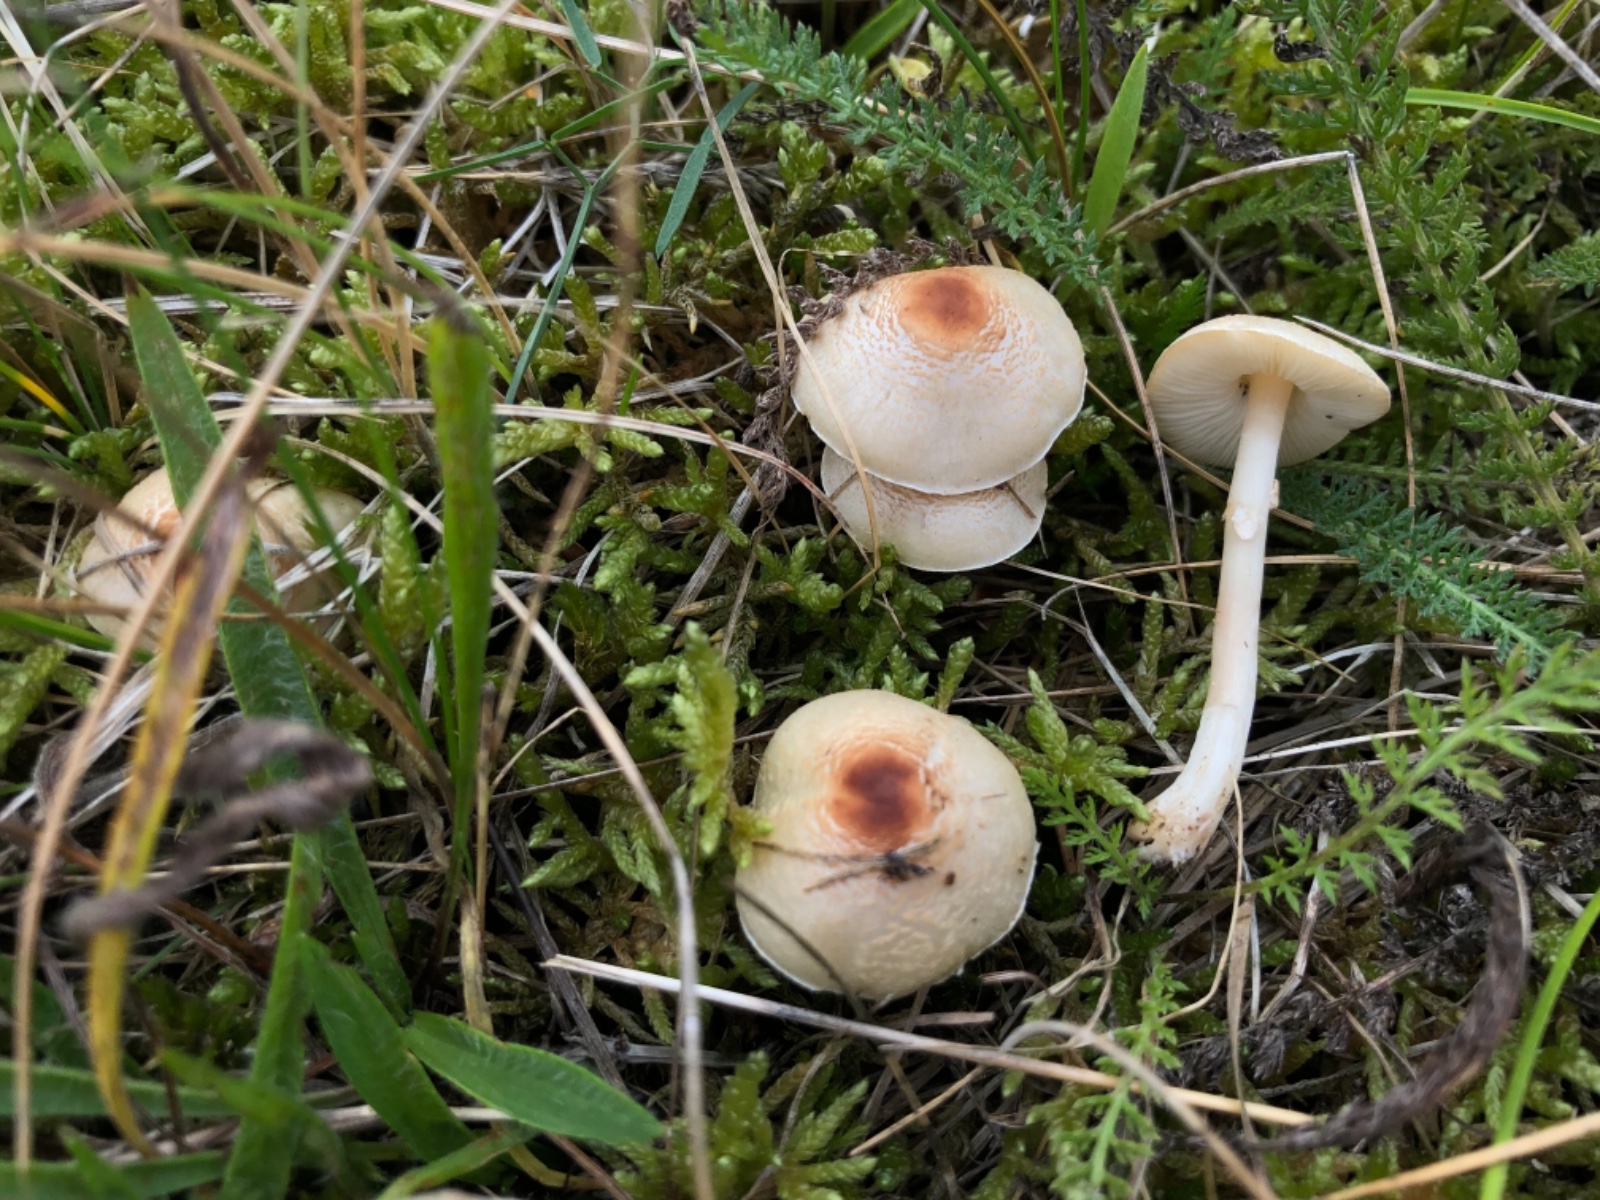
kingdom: Fungi
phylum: Basidiomycota
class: Agaricomycetes
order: Agaricales
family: Agaricaceae
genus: Lepiota
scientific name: Lepiota cristata
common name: stinkende parasolhat
